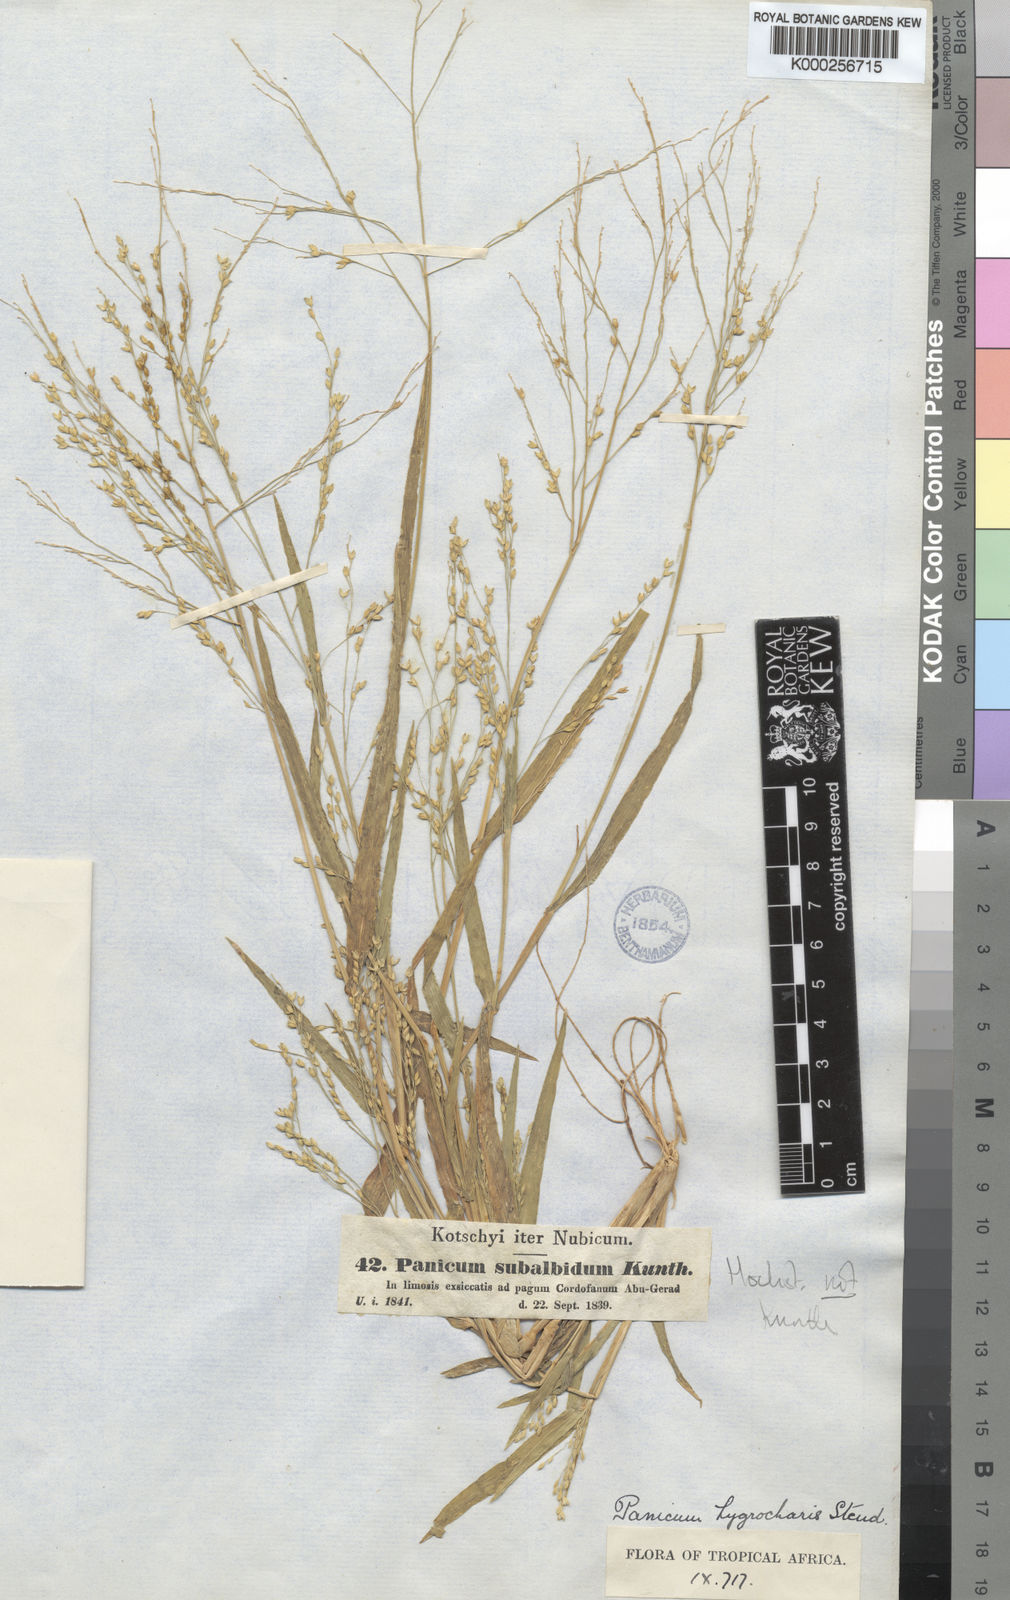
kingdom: Plantae
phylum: Tracheophyta
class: Liliopsida
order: Poales
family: Poaceae
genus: Panicum
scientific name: Panicum laetum
